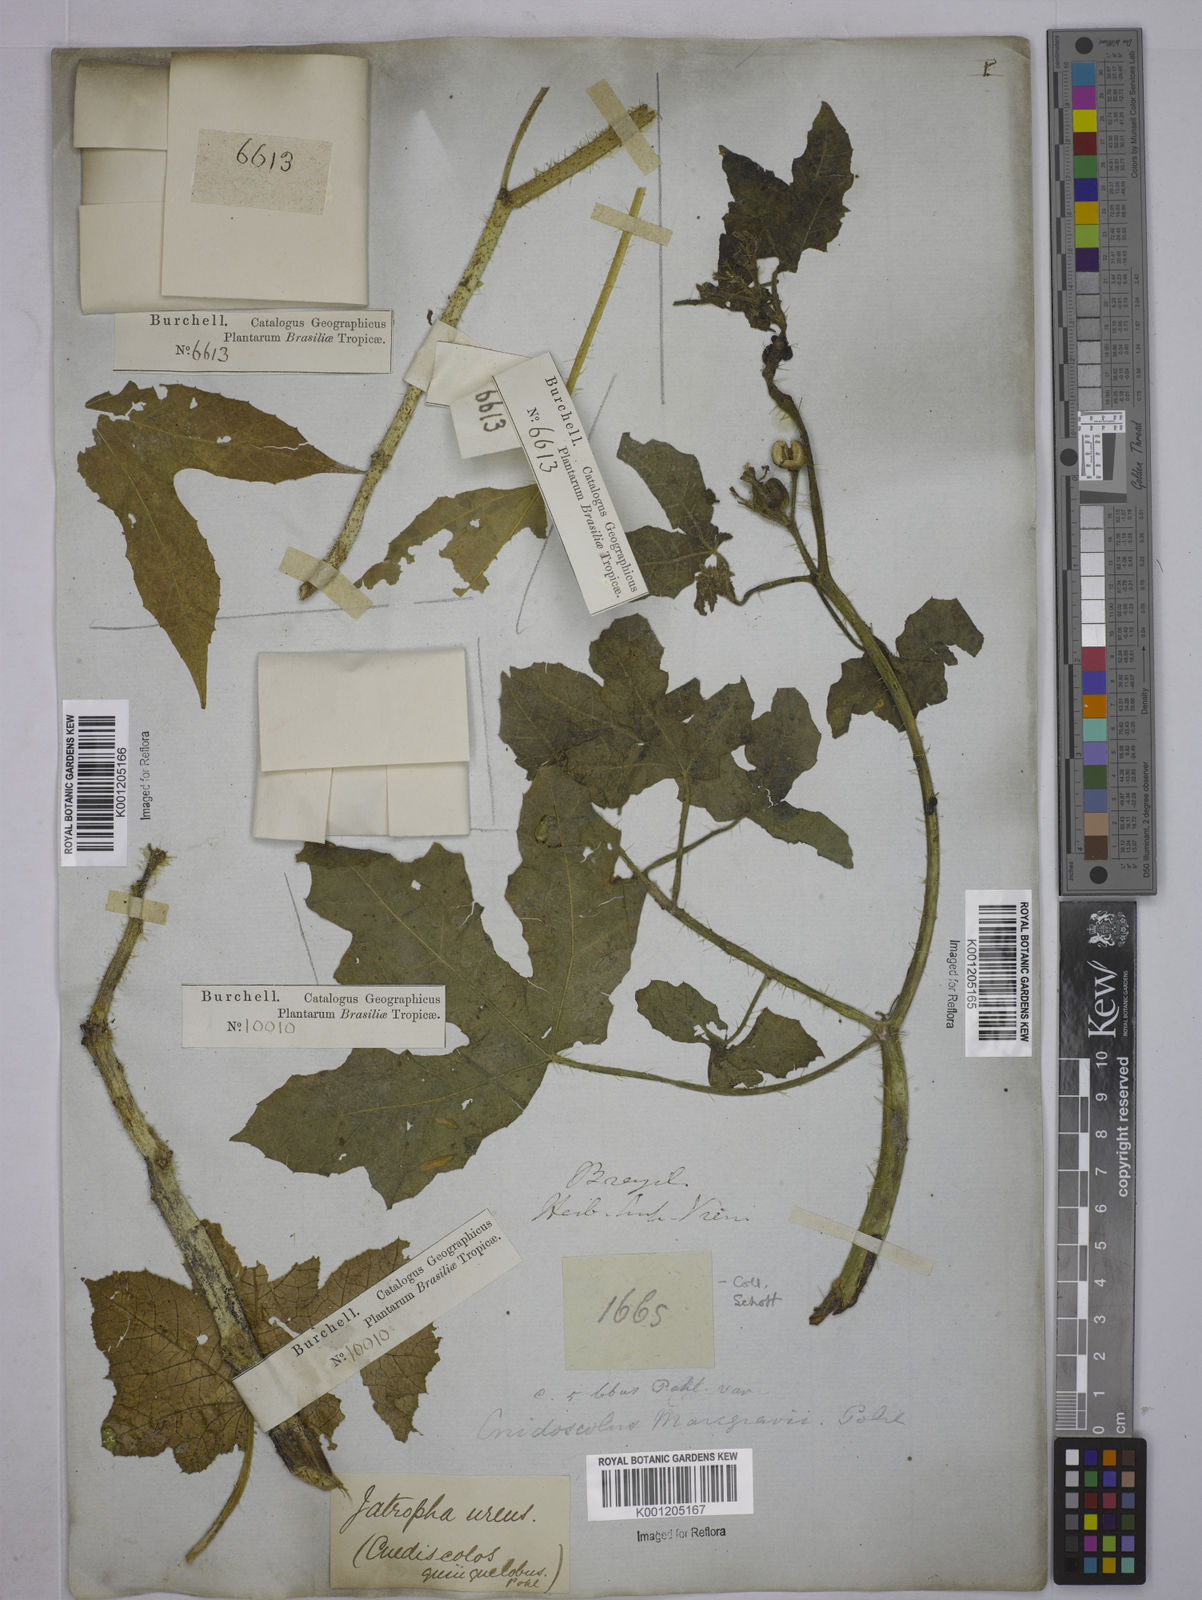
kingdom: Plantae
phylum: Tracheophyta
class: Magnoliopsida
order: Malpighiales
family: Euphorbiaceae
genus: Cnidoscolus
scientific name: Cnidoscolus urens
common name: Bull-nettle
